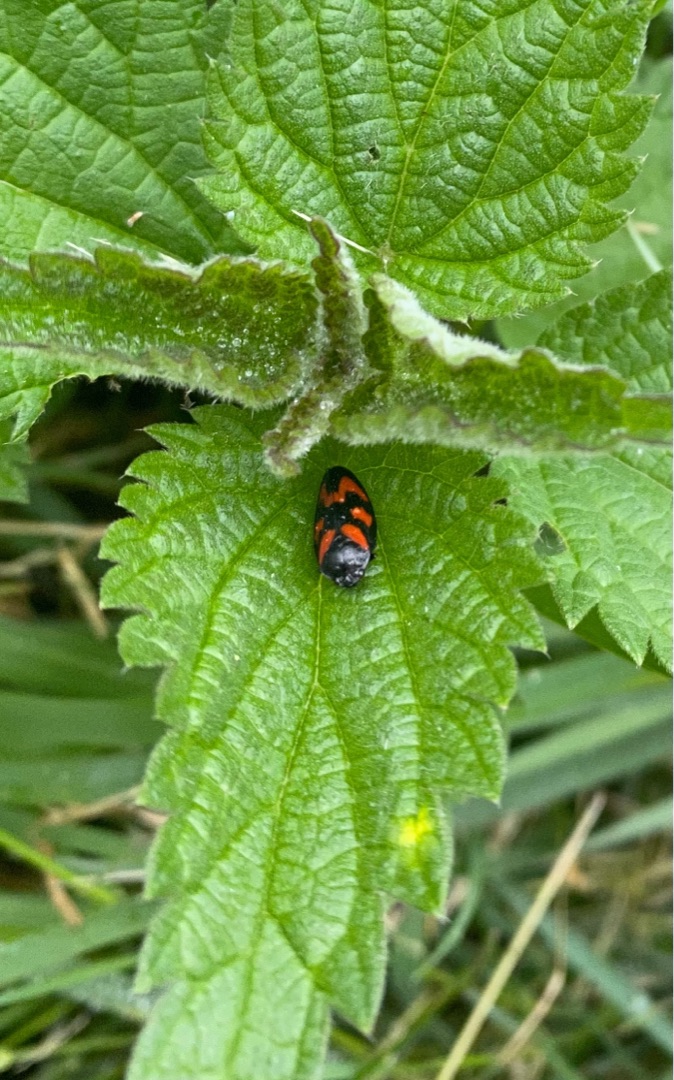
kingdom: Animalia
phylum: Arthropoda
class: Insecta
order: Hemiptera
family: Cercopidae
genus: Cercopis
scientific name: Cercopis vulnerata
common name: Blodcikade
